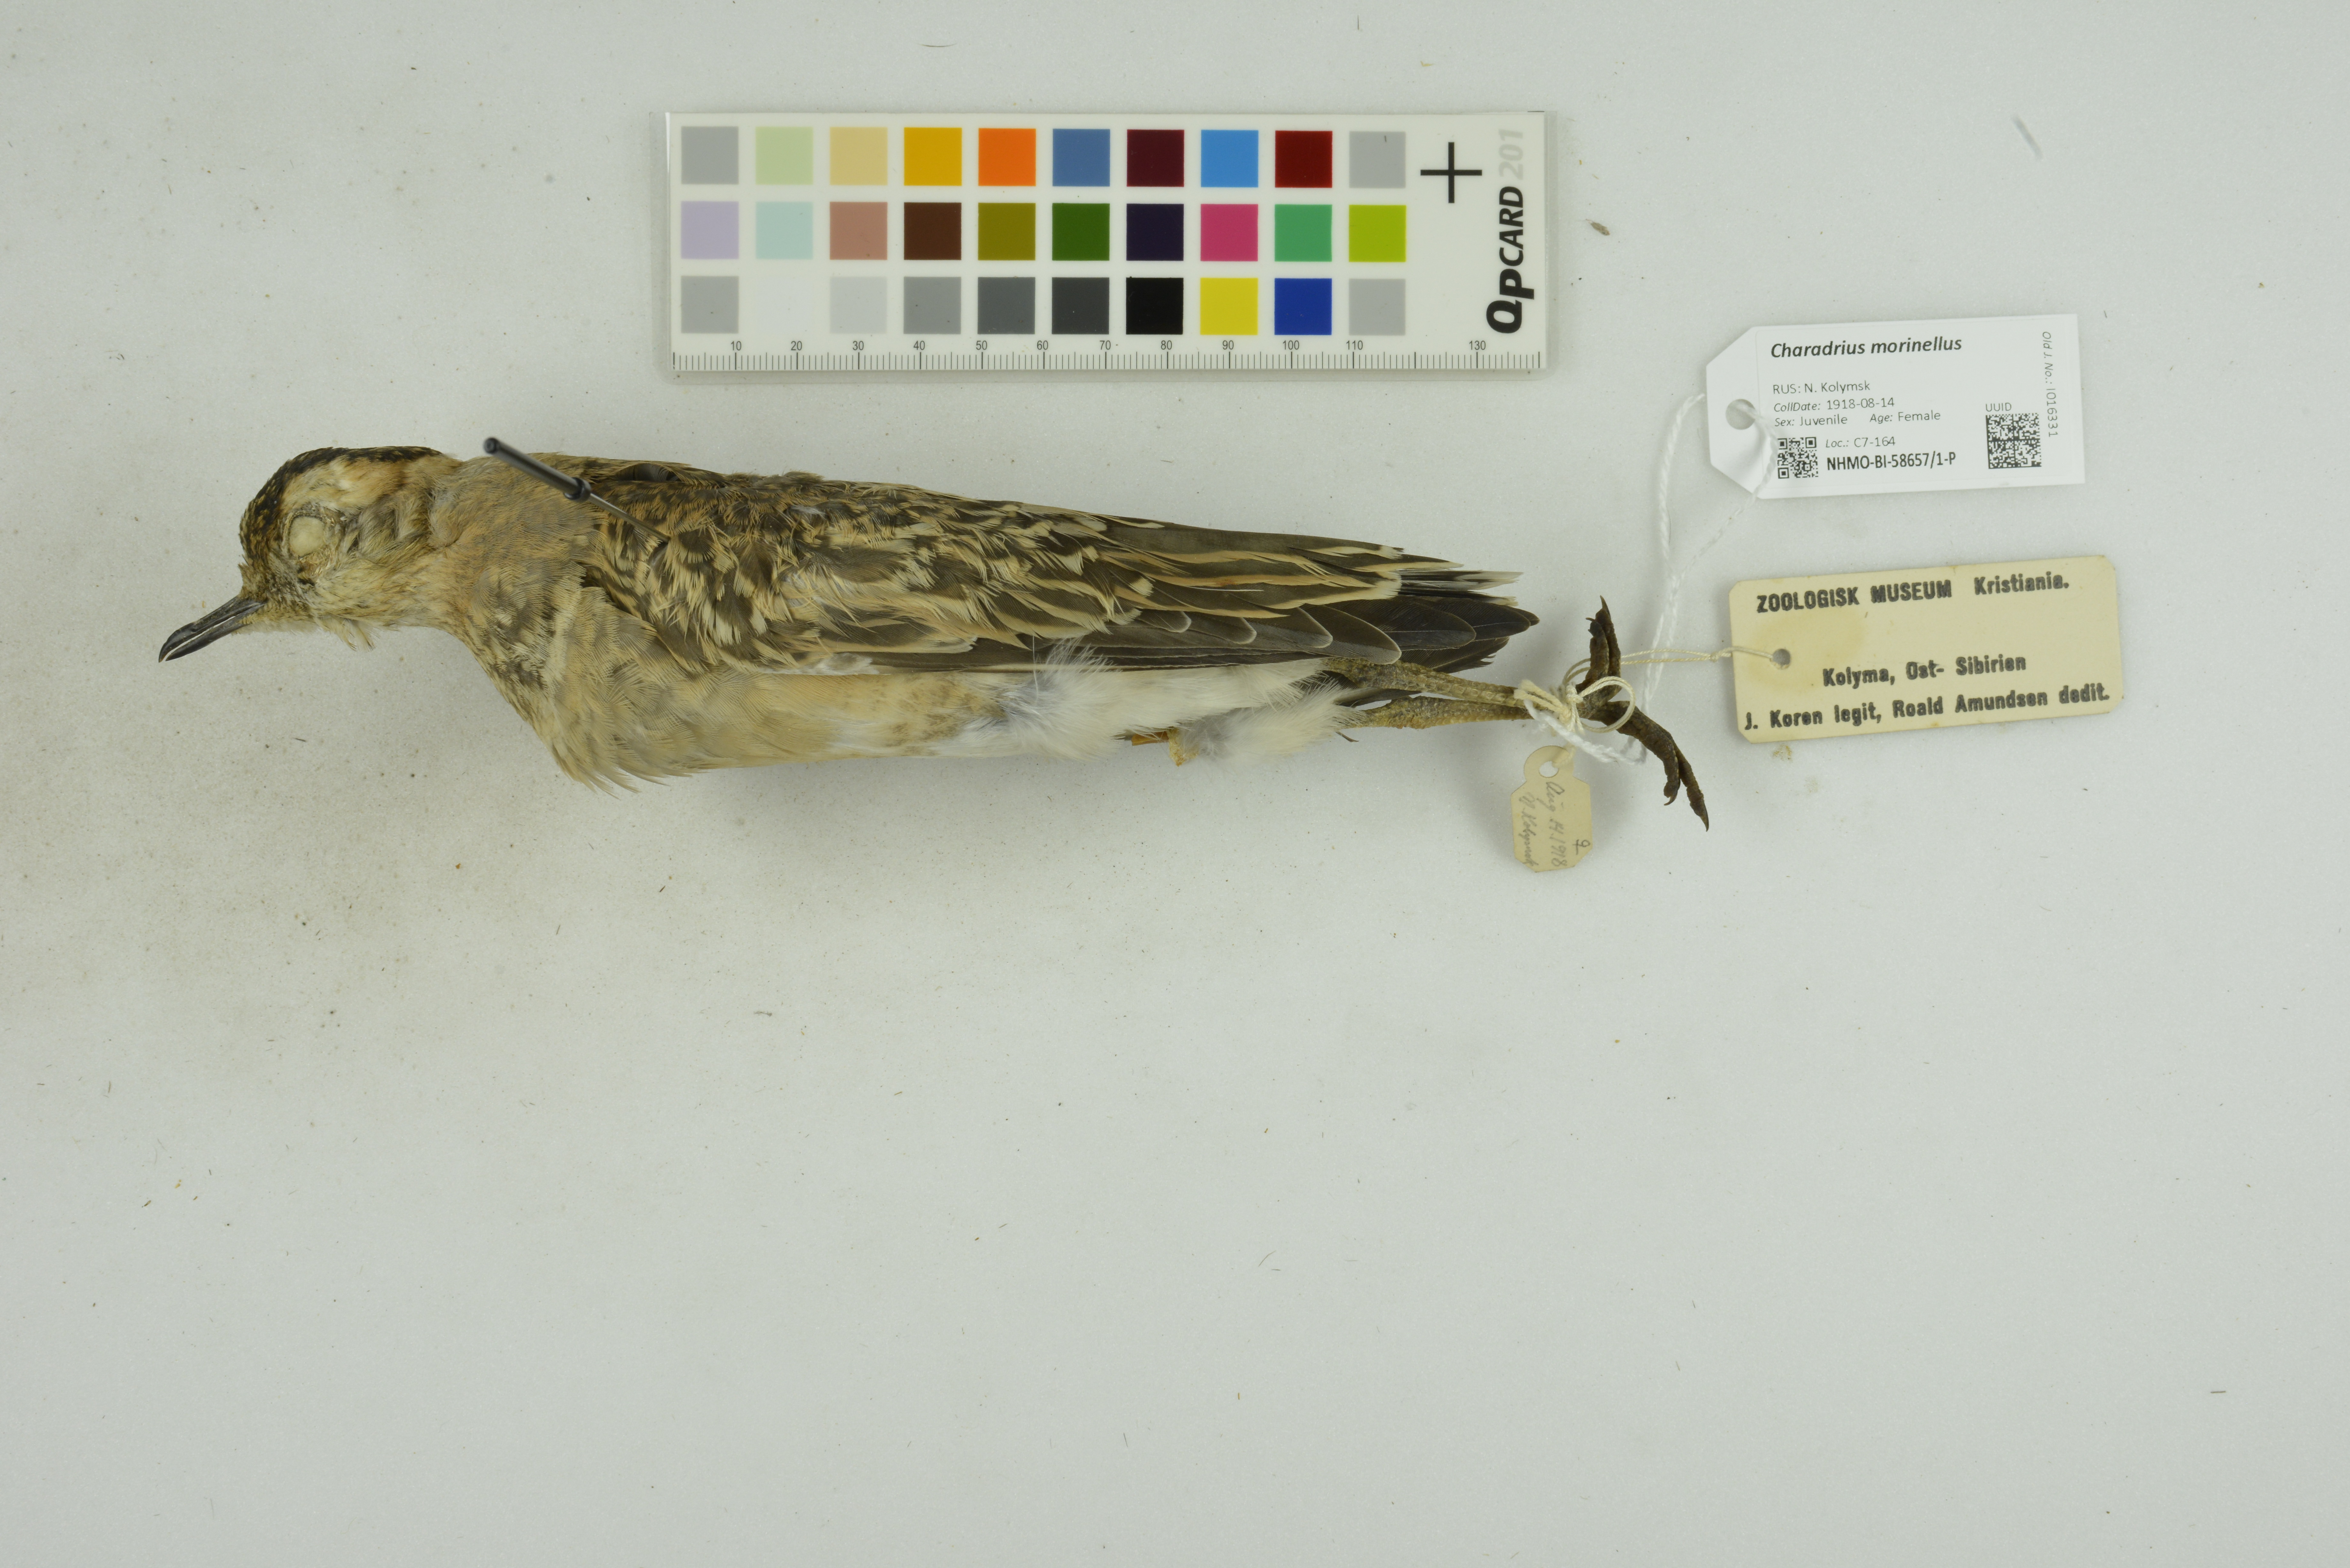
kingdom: Animalia
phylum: Chordata
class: Aves
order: Charadriiformes
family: Charadriidae
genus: Charadrius
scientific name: Charadrius morinellus
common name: Eurasian dotterel
